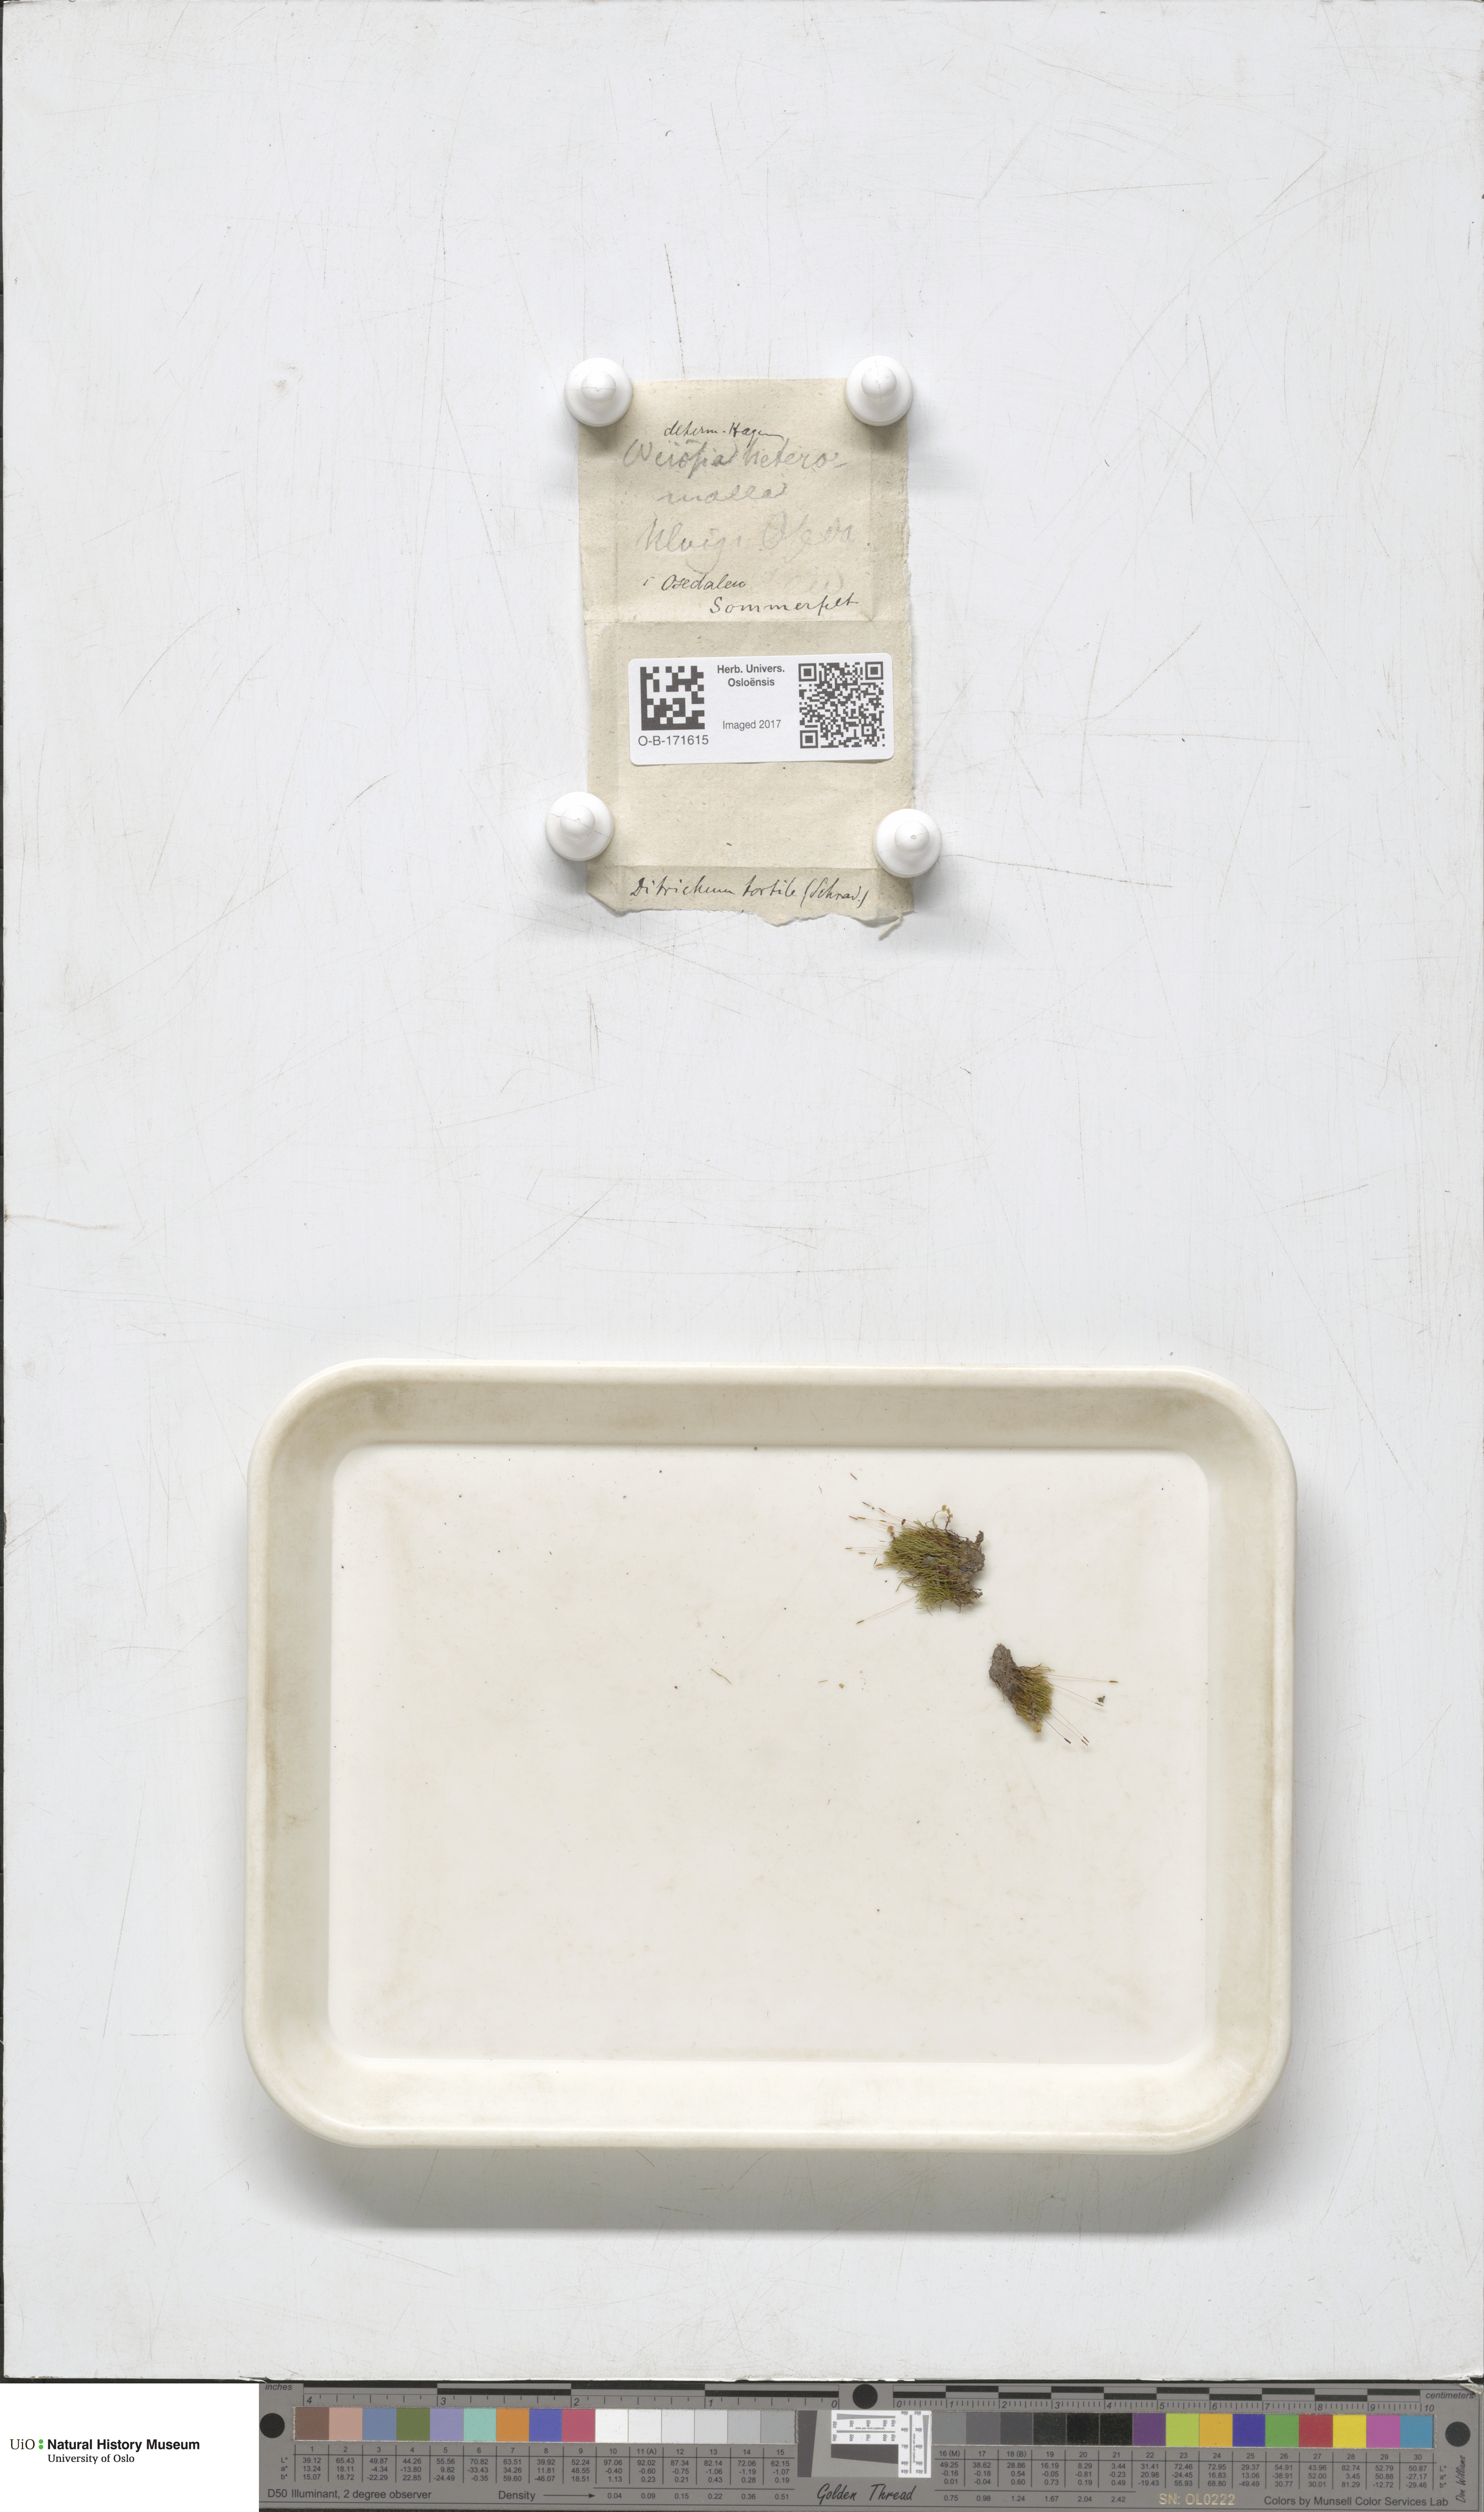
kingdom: Plantae
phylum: Bryophyta
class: Bryopsida
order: Dicranales
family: Ditrichaceae
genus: Ditrichum
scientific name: Ditrichum pusillum
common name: Brown cow-hair moss
